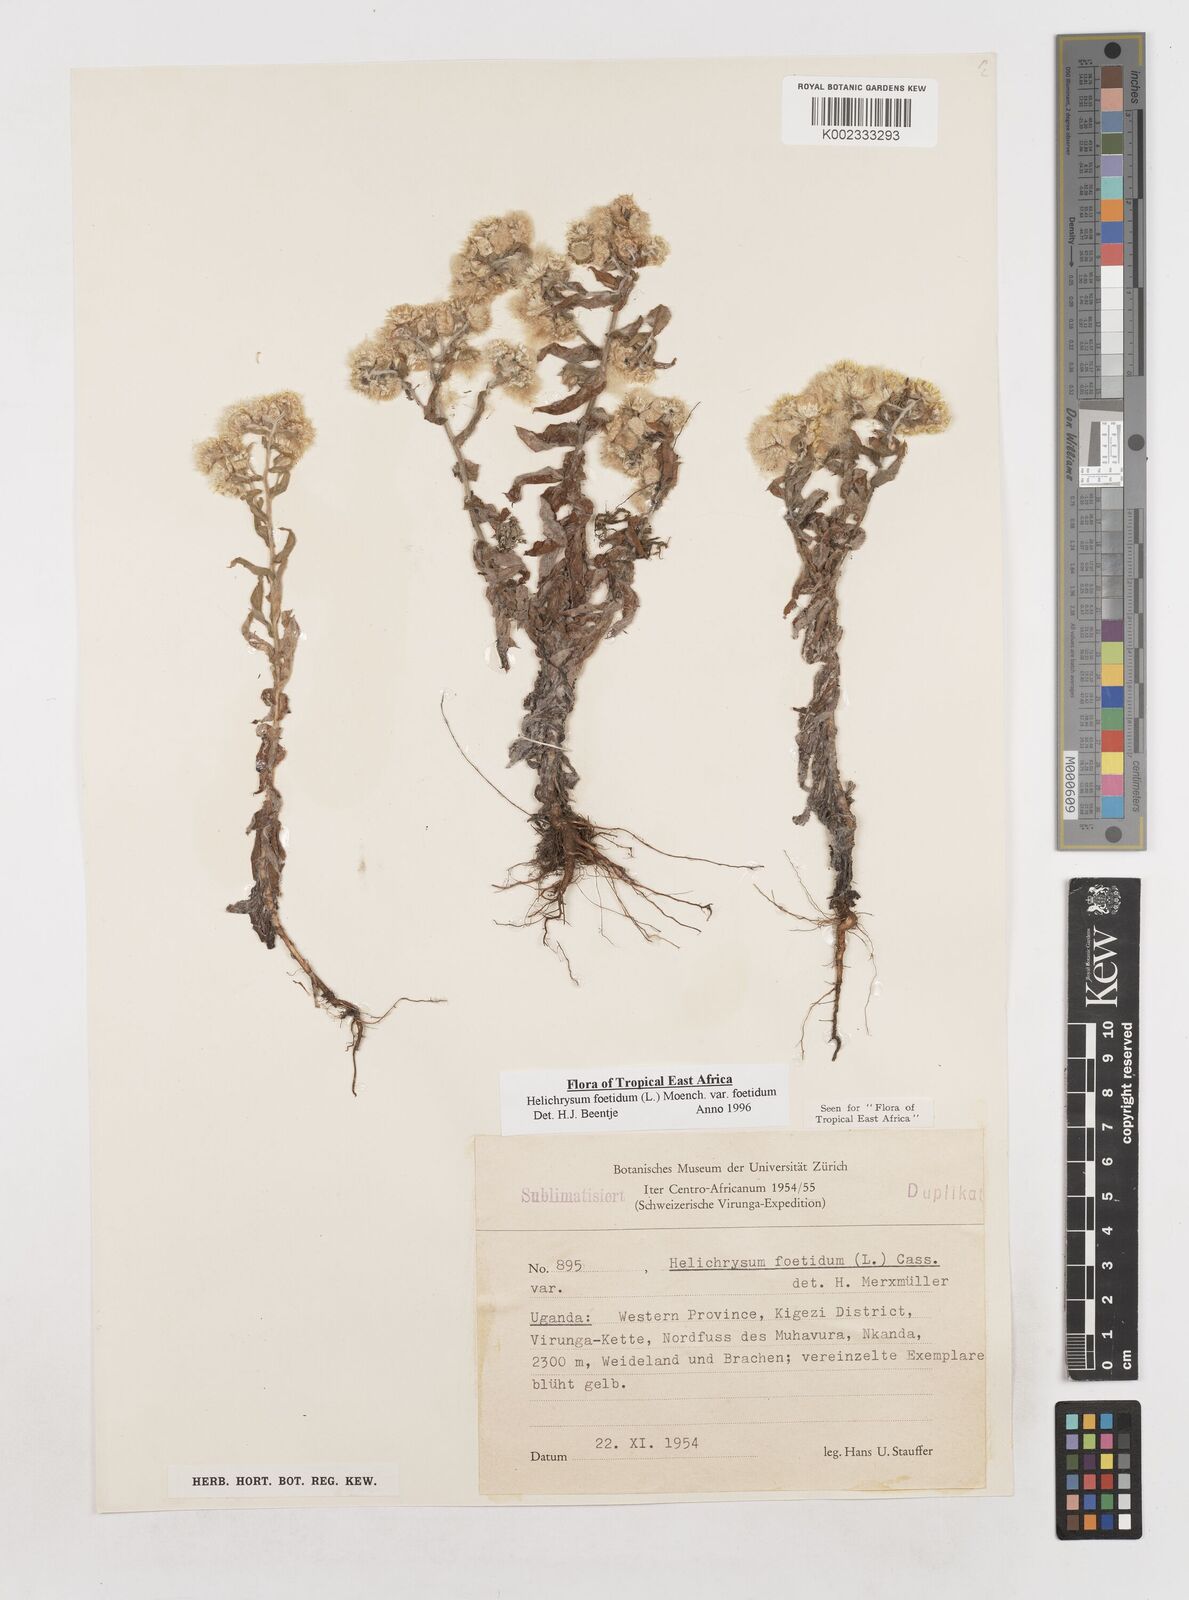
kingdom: Plantae
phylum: Tracheophyta
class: Magnoliopsida
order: Asterales
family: Asteraceae
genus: Helichrysum
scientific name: Helichrysum foetidum
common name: Stinking everlasting
